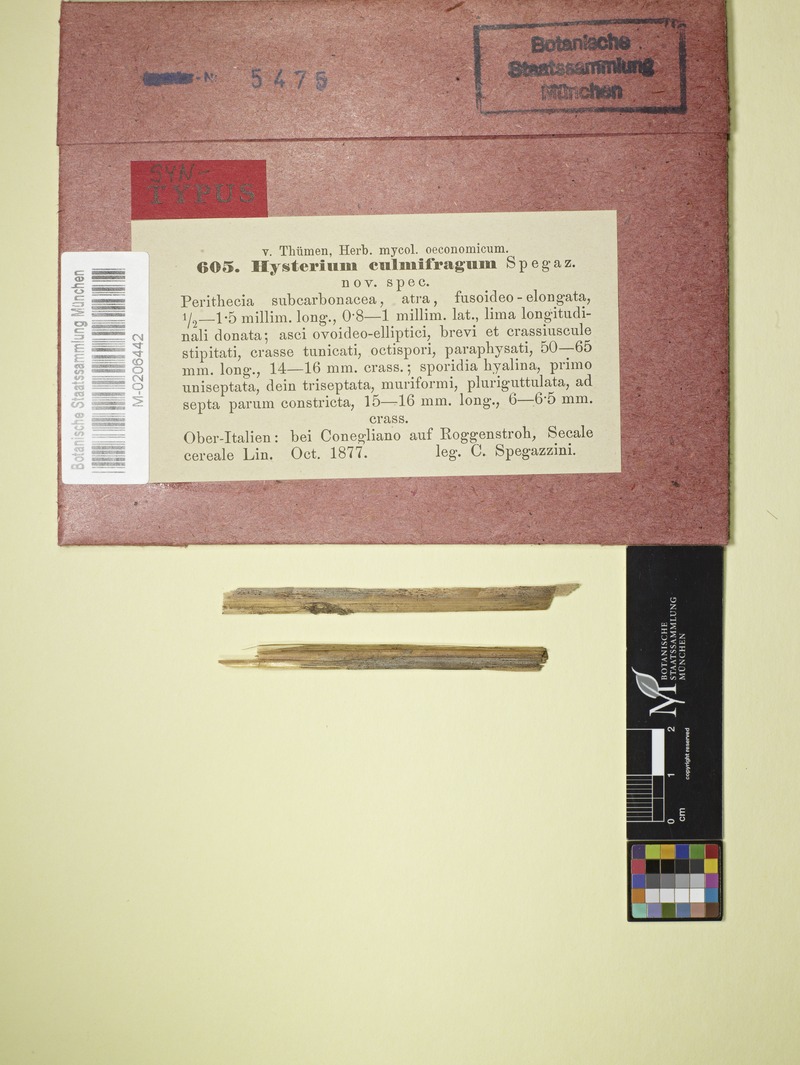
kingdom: Fungi
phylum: Ascomycota
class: Dothideomycetes
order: Hysteriales
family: Hysteriaceae
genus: Gloniopsis
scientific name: Gloniopsis
